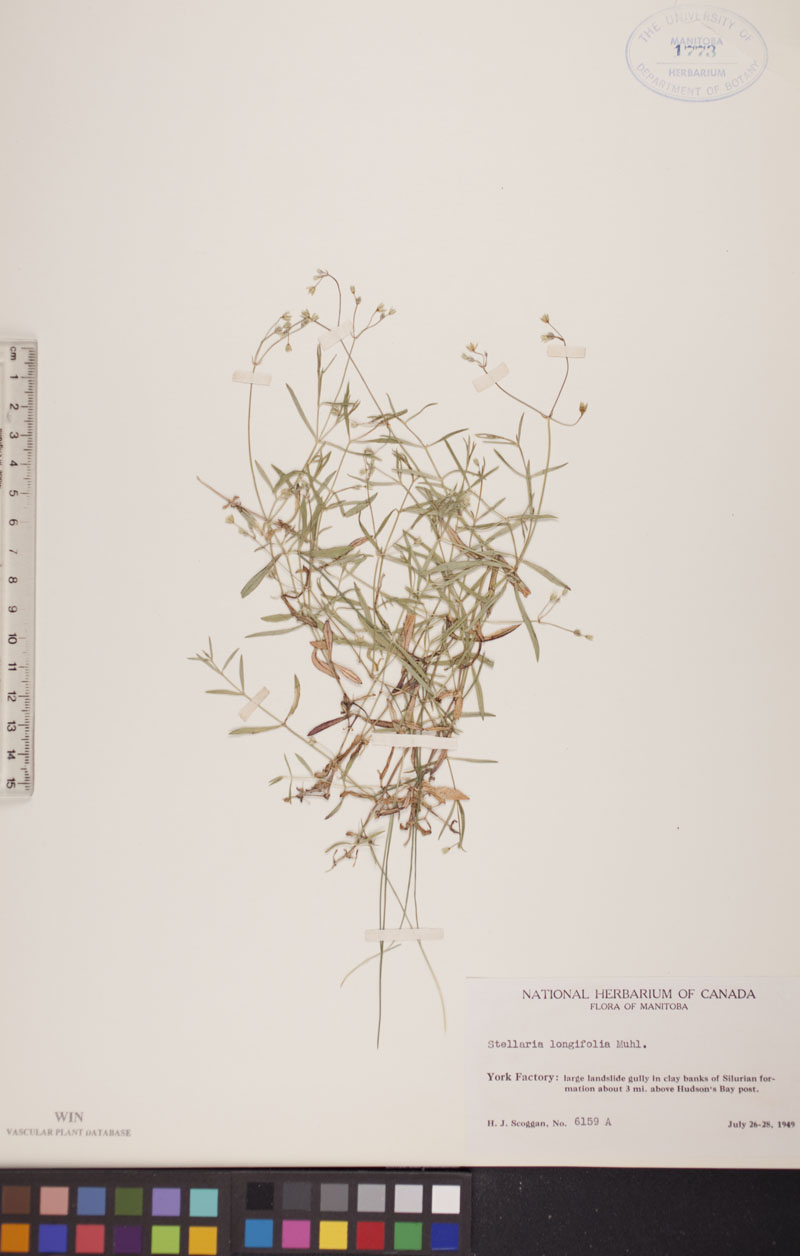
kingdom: Plantae
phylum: Tracheophyta
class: Magnoliopsida
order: Caryophyllales
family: Caryophyllaceae
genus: Stellaria
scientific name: Stellaria longifolia
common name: Long-leaved chickweed
